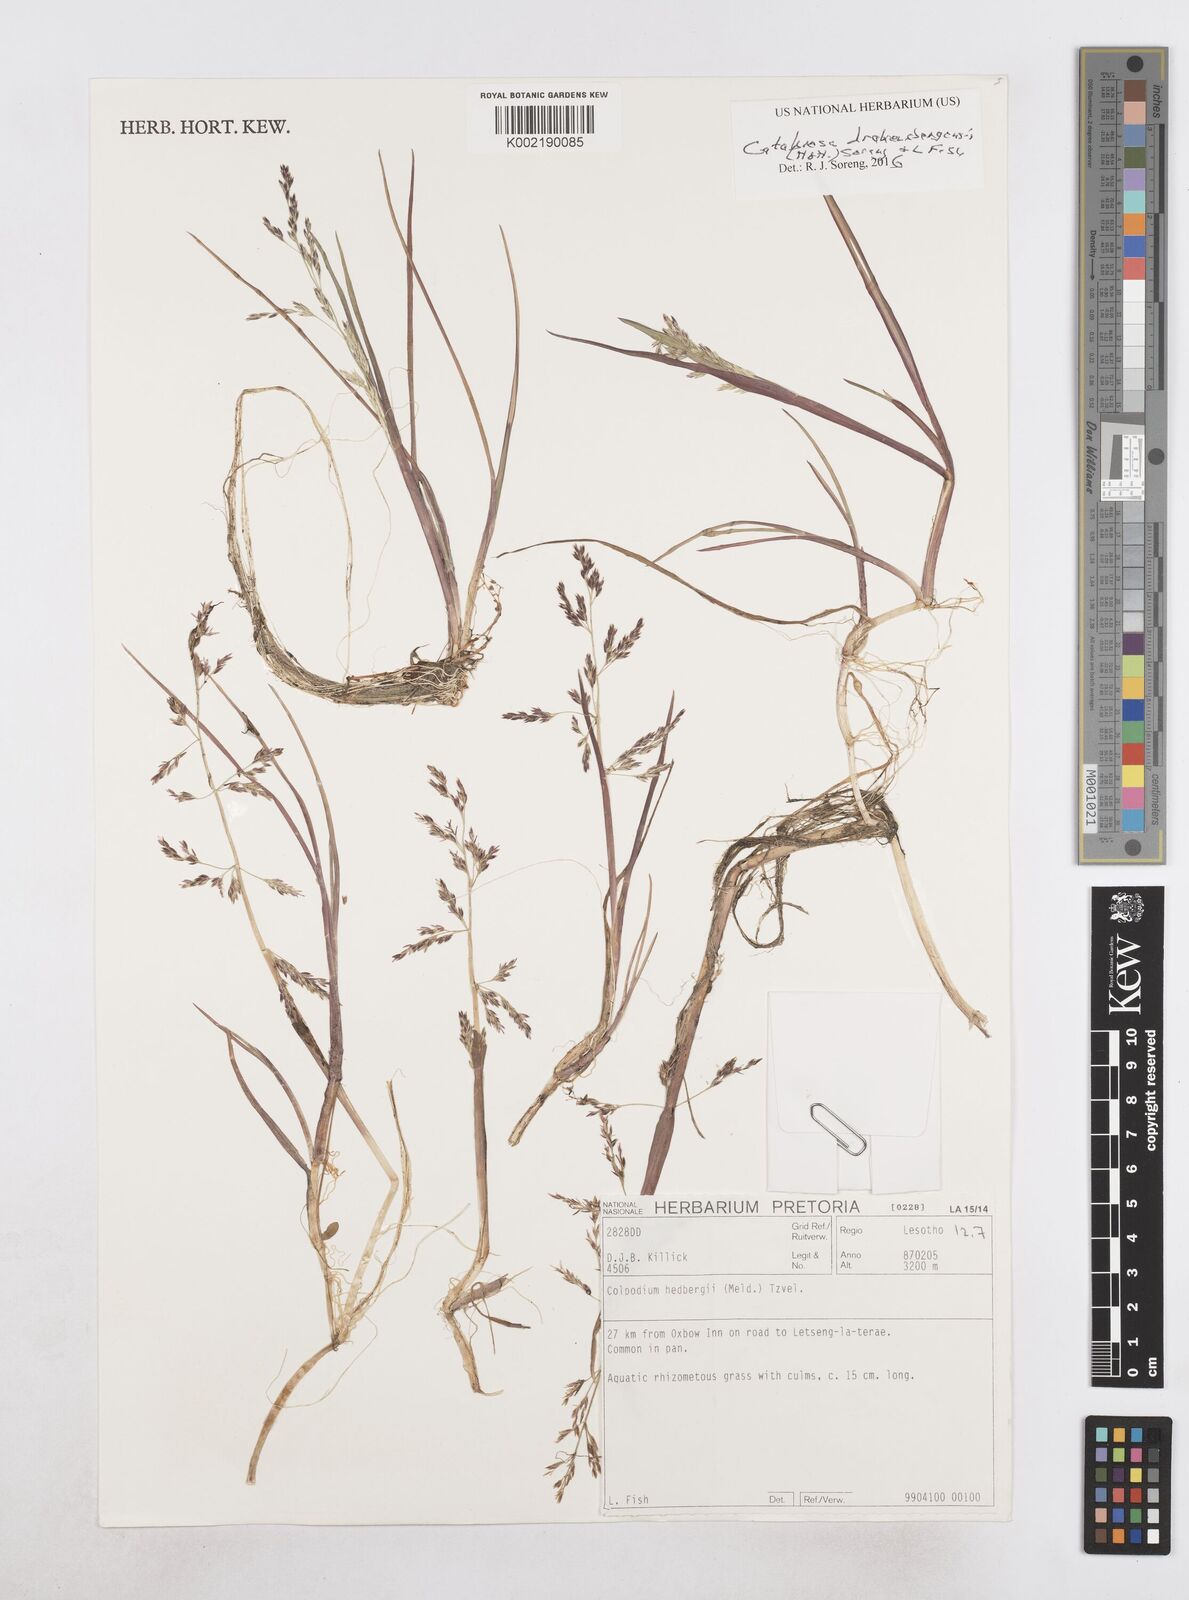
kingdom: Plantae
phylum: Tracheophyta
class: Liliopsida
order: Poales
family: Poaceae
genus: Catabrosa
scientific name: Catabrosa drakensbergensis
